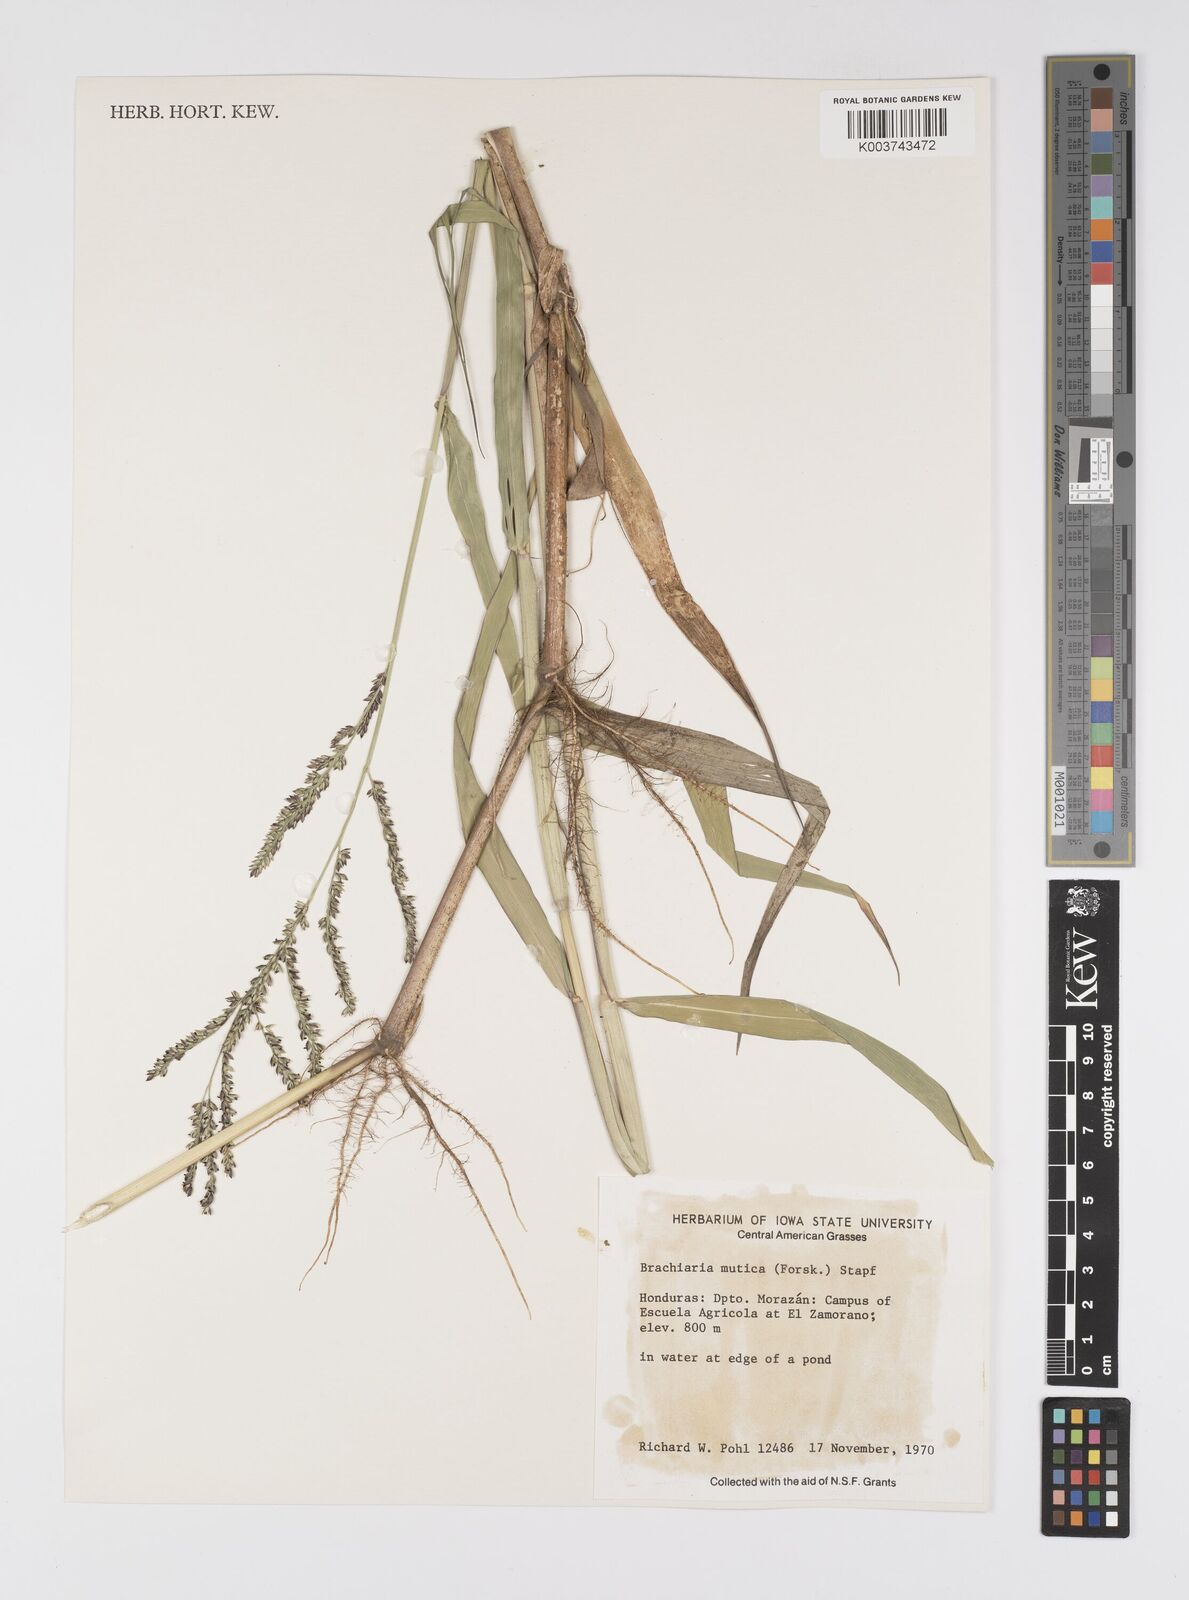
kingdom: Plantae
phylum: Tracheophyta
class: Liliopsida
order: Poales
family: Poaceae
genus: Urochloa
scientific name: Urochloa mutica
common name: Para grass
